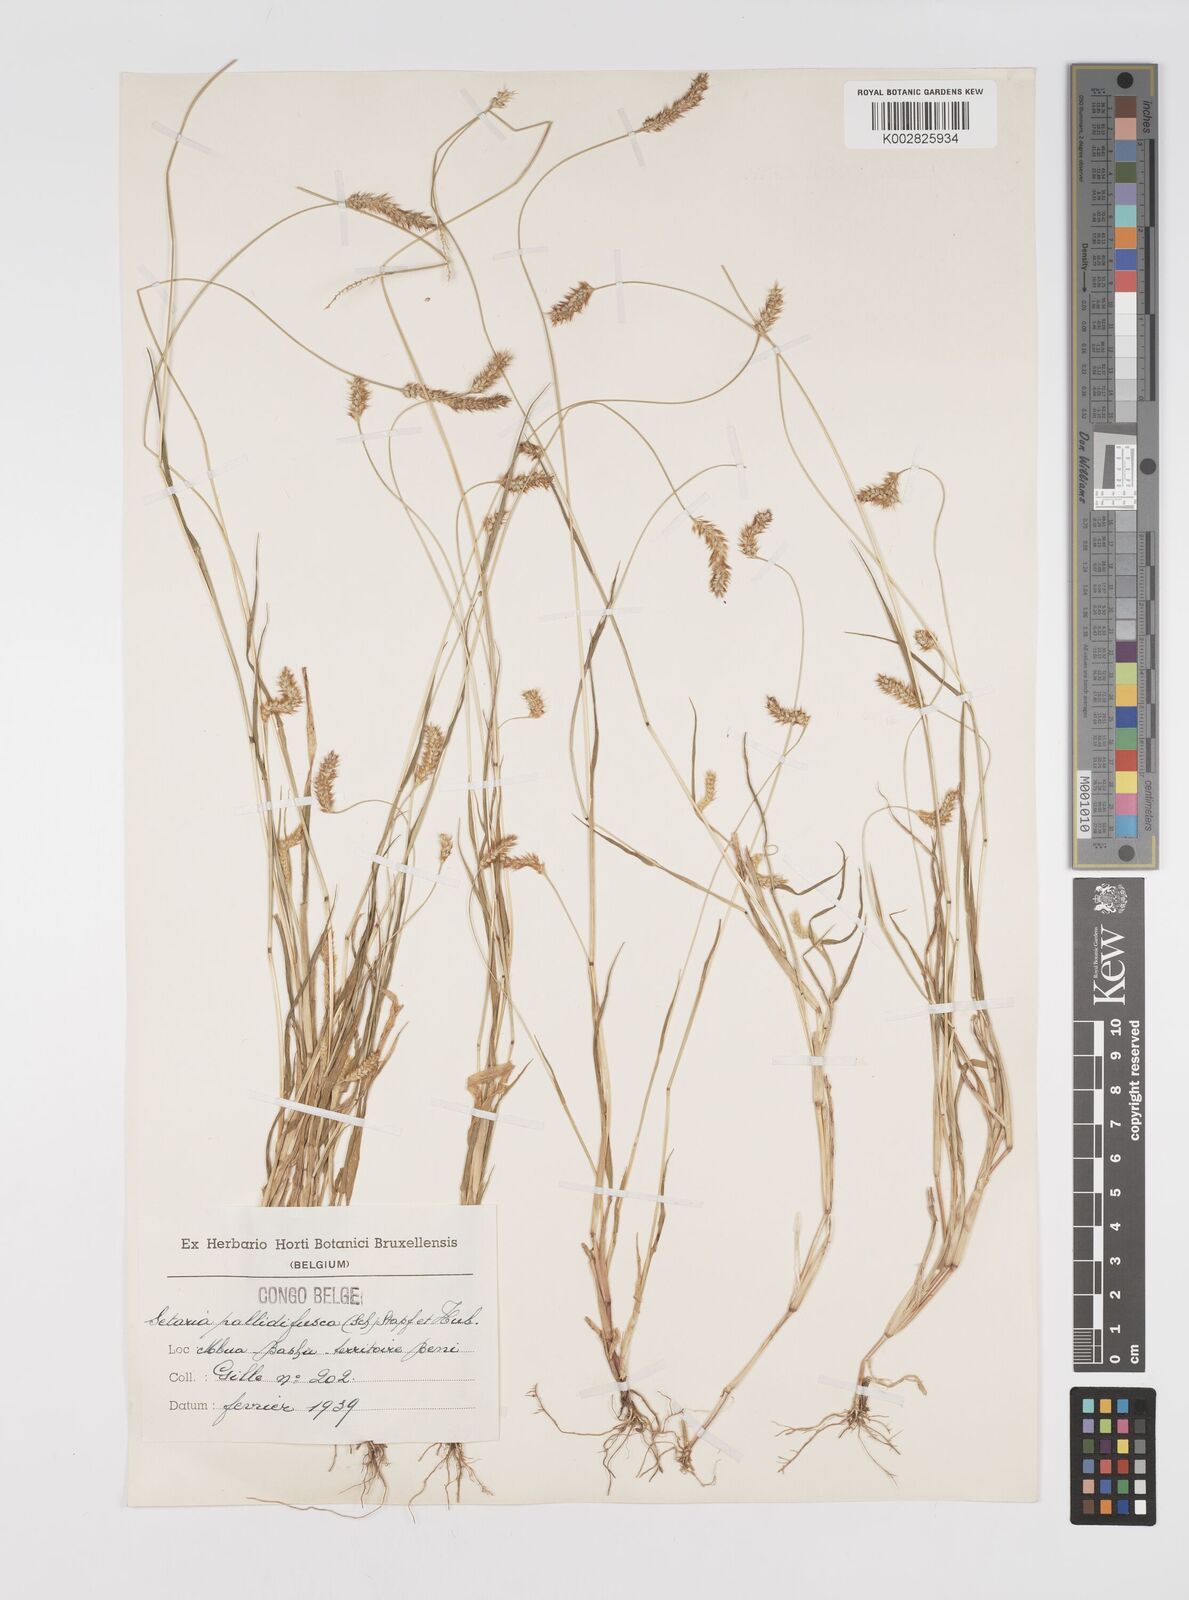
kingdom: Plantae
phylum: Tracheophyta
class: Liliopsida
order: Poales
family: Poaceae
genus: Setaria
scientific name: Setaria pumila
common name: Yellow bristle-grass
